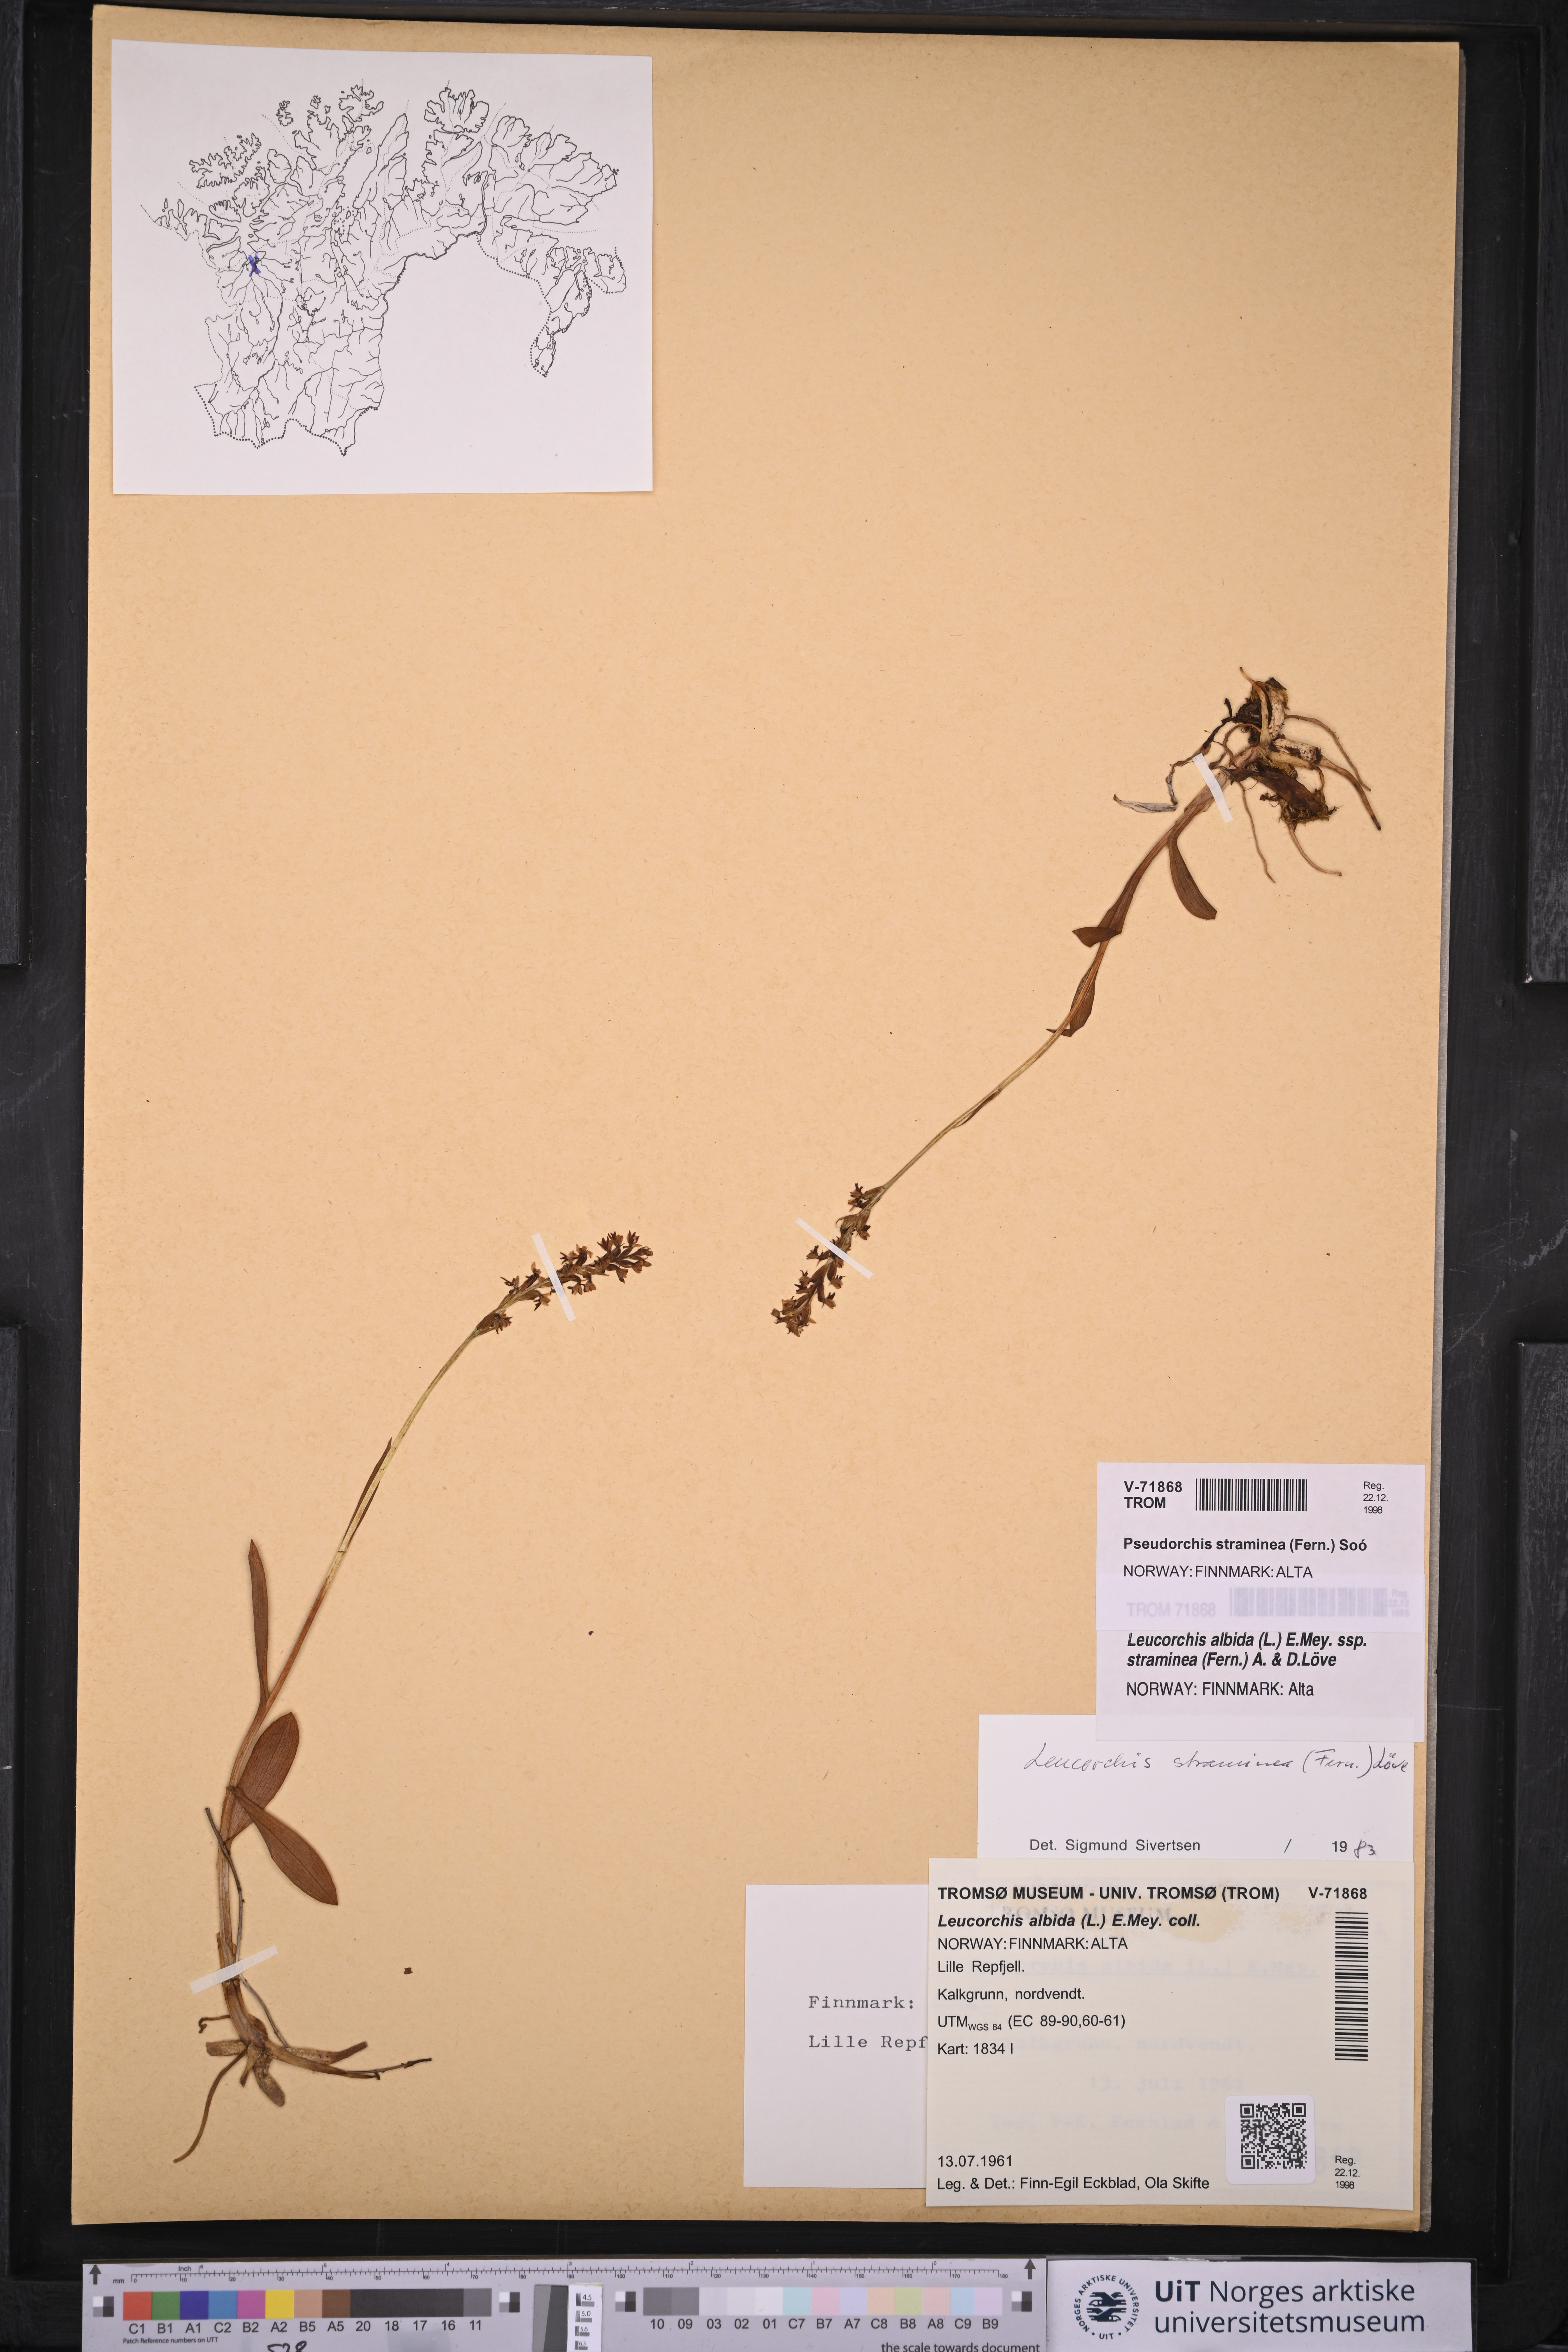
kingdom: Plantae
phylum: Tracheophyta
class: Liliopsida
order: Asparagales
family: Orchidaceae
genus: Pseudorchis
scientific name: Pseudorchis straminea
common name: Vanilla-scented bog orchid
